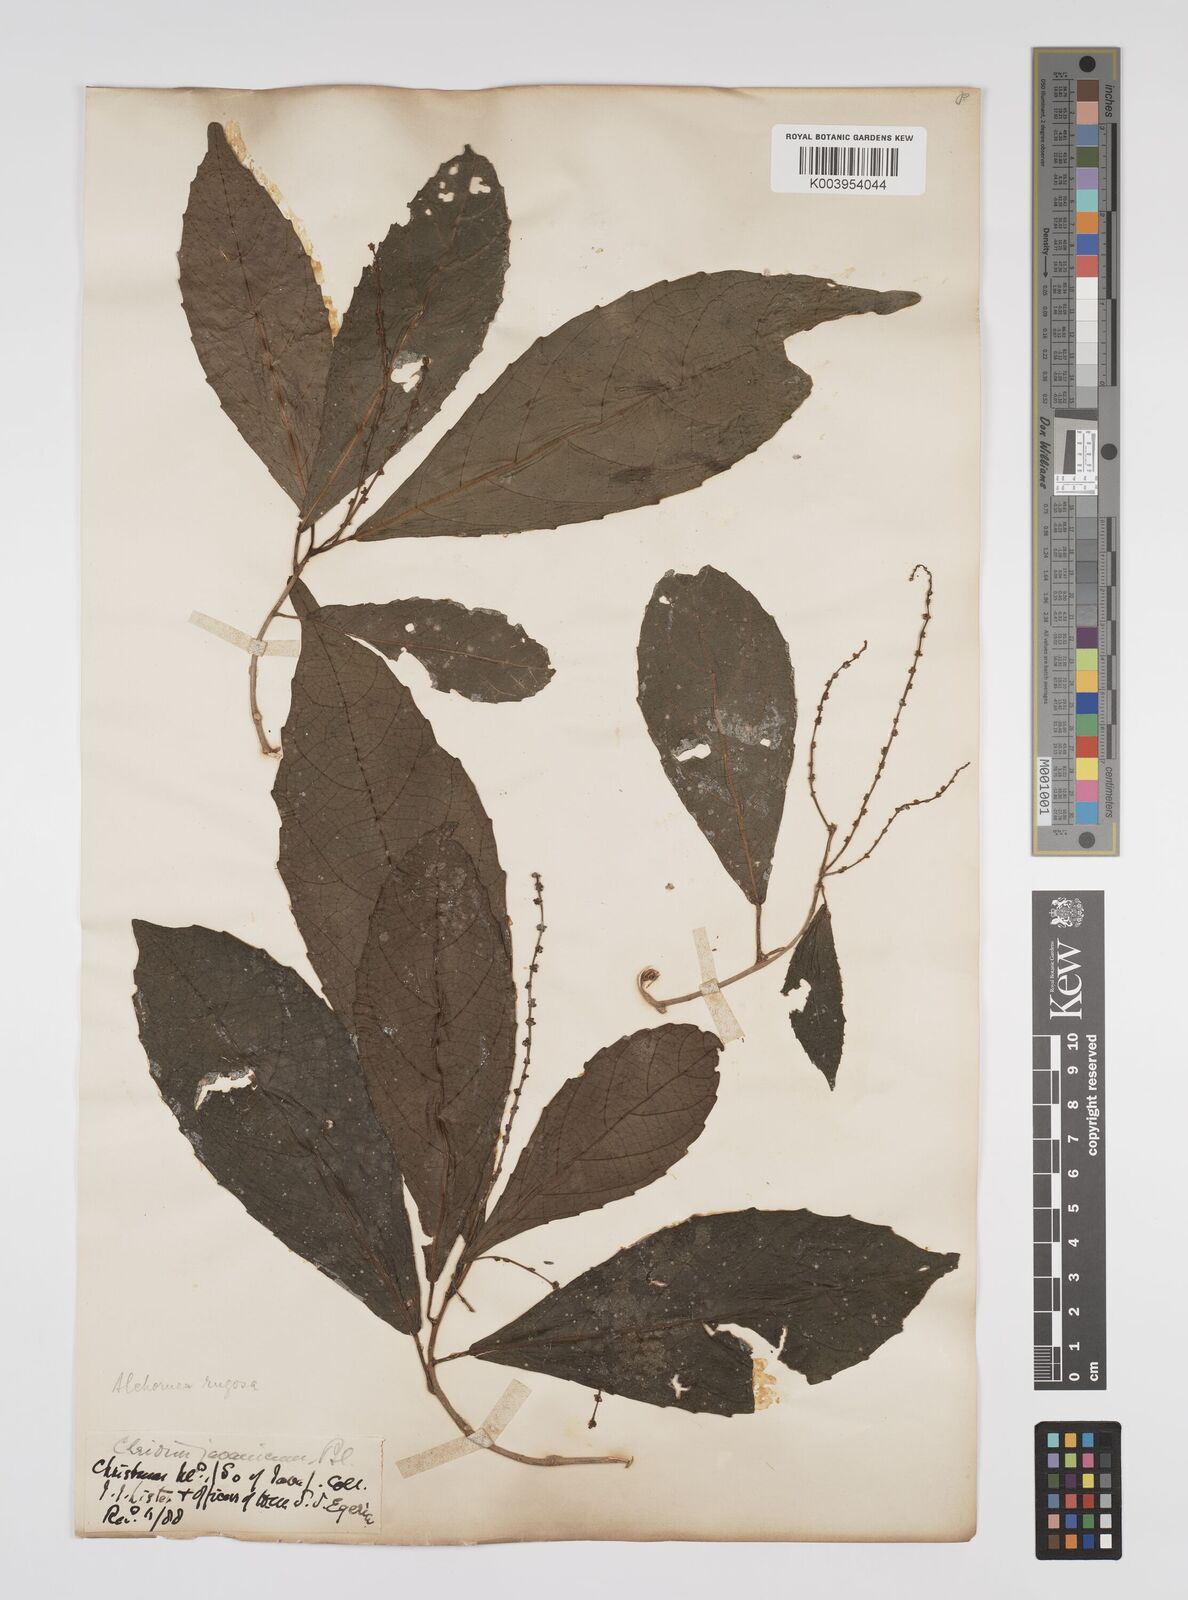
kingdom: Plantae
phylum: Tracheophyta
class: Magnoliopsida
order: Malpighiales
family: Euphorbiaceae
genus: Alchornea
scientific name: Alchornea rugosa
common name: Alchorntree
